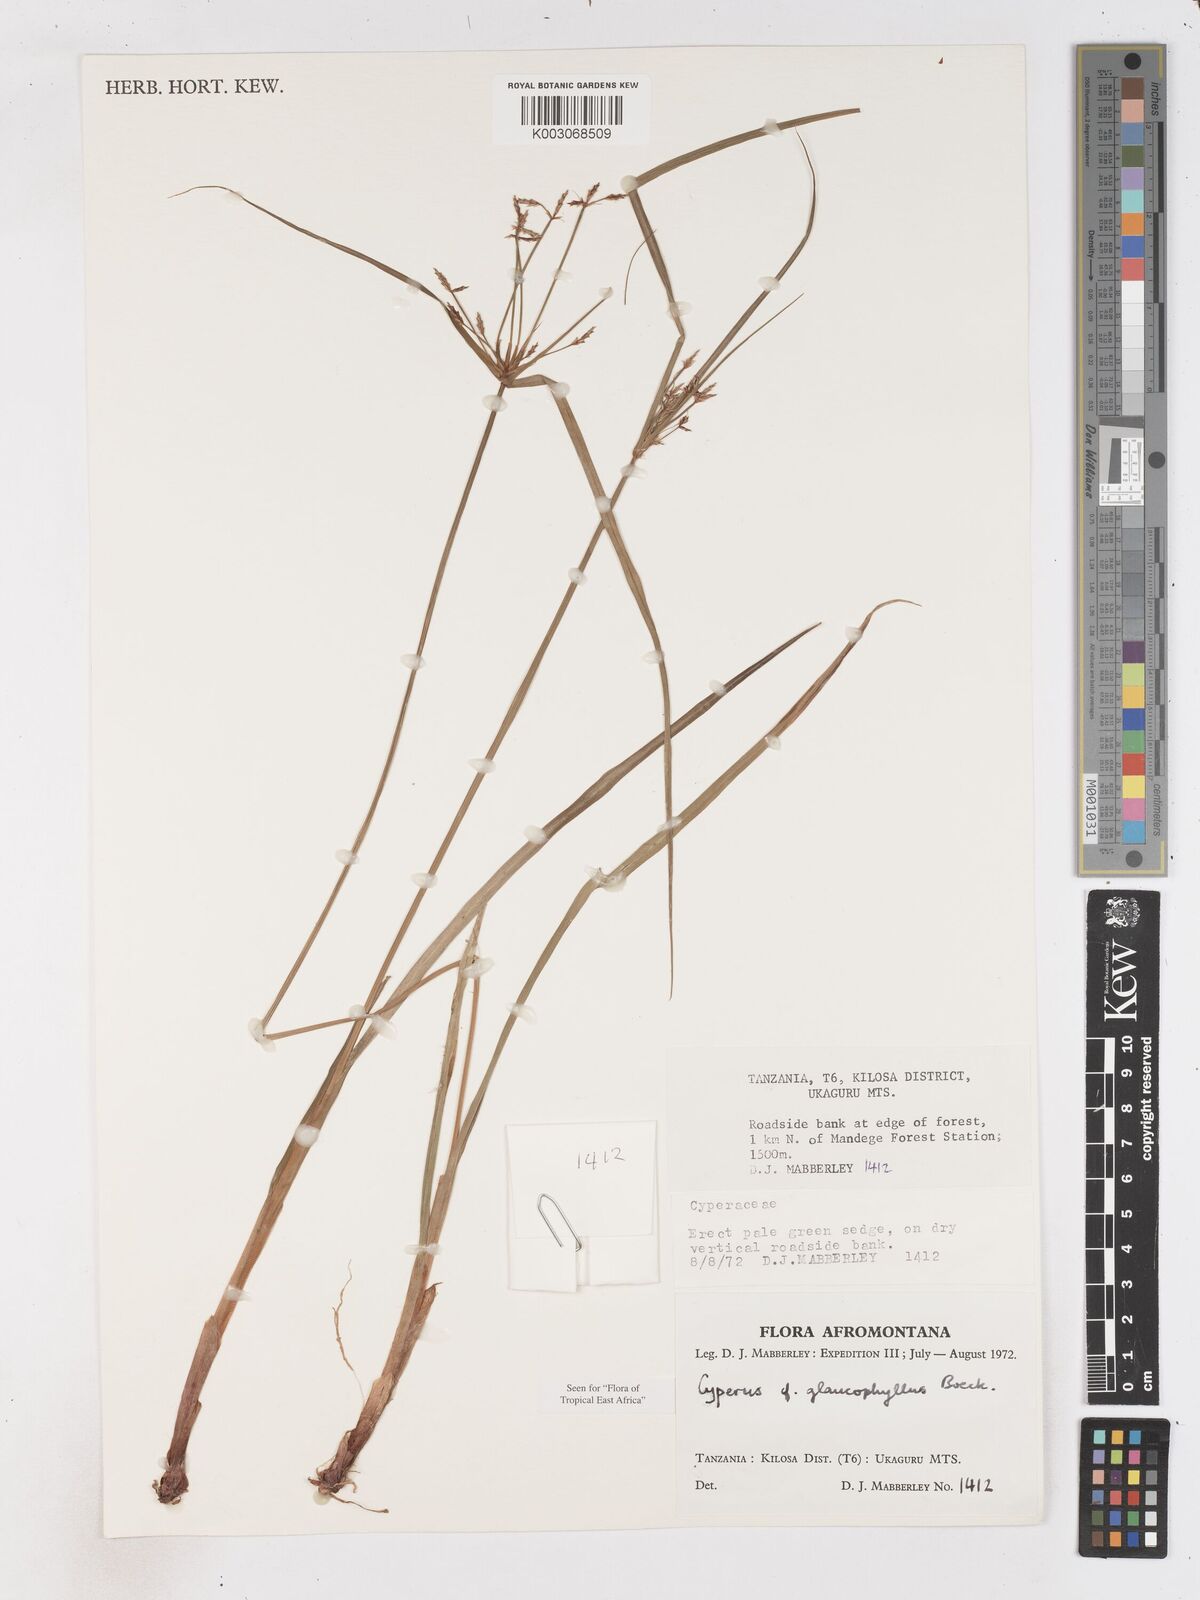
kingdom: Plantae
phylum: Tracheophyta
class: Liliopsida
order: Poales
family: Cyperaceae
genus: Cyperus
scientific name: Cyperus glaucophyllus
